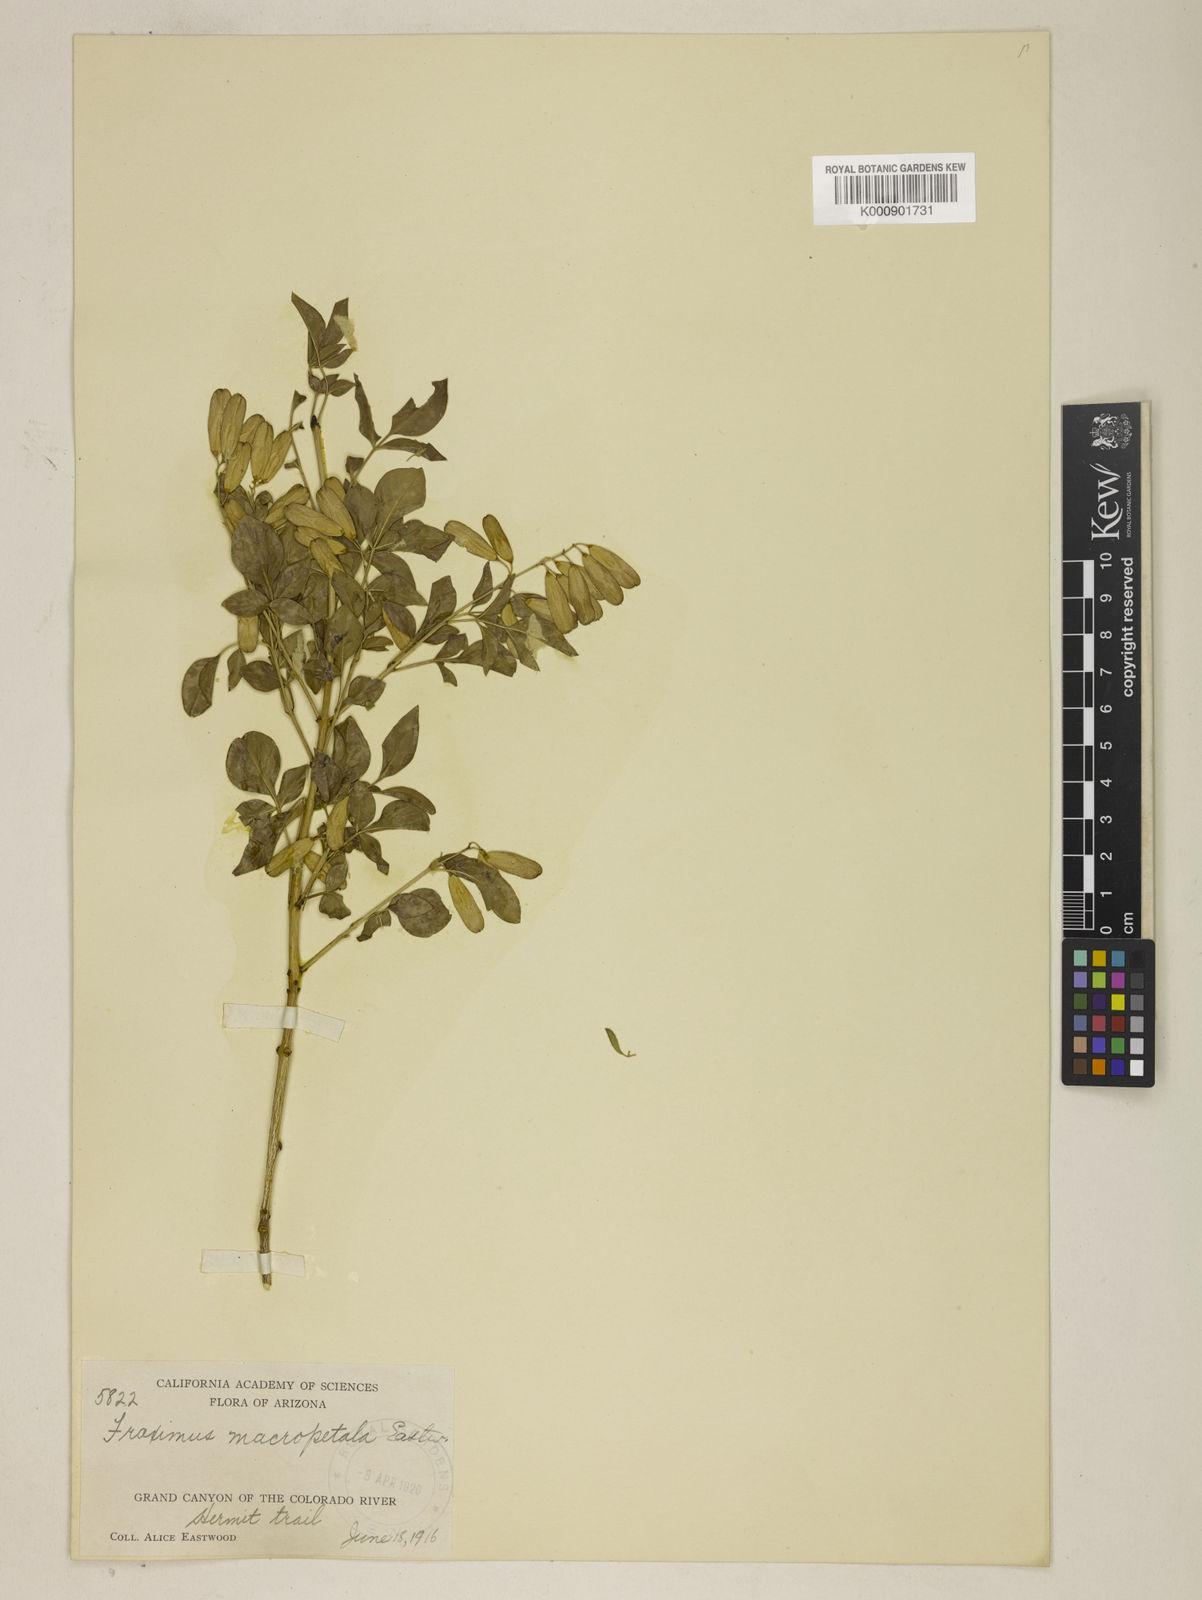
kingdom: Plantae
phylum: Tracheophyta
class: Magnoliopsida
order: Lamiales
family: Oleaceae
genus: Fraxinus
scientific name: Fraxinus cuspidata
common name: Fragrant ash
